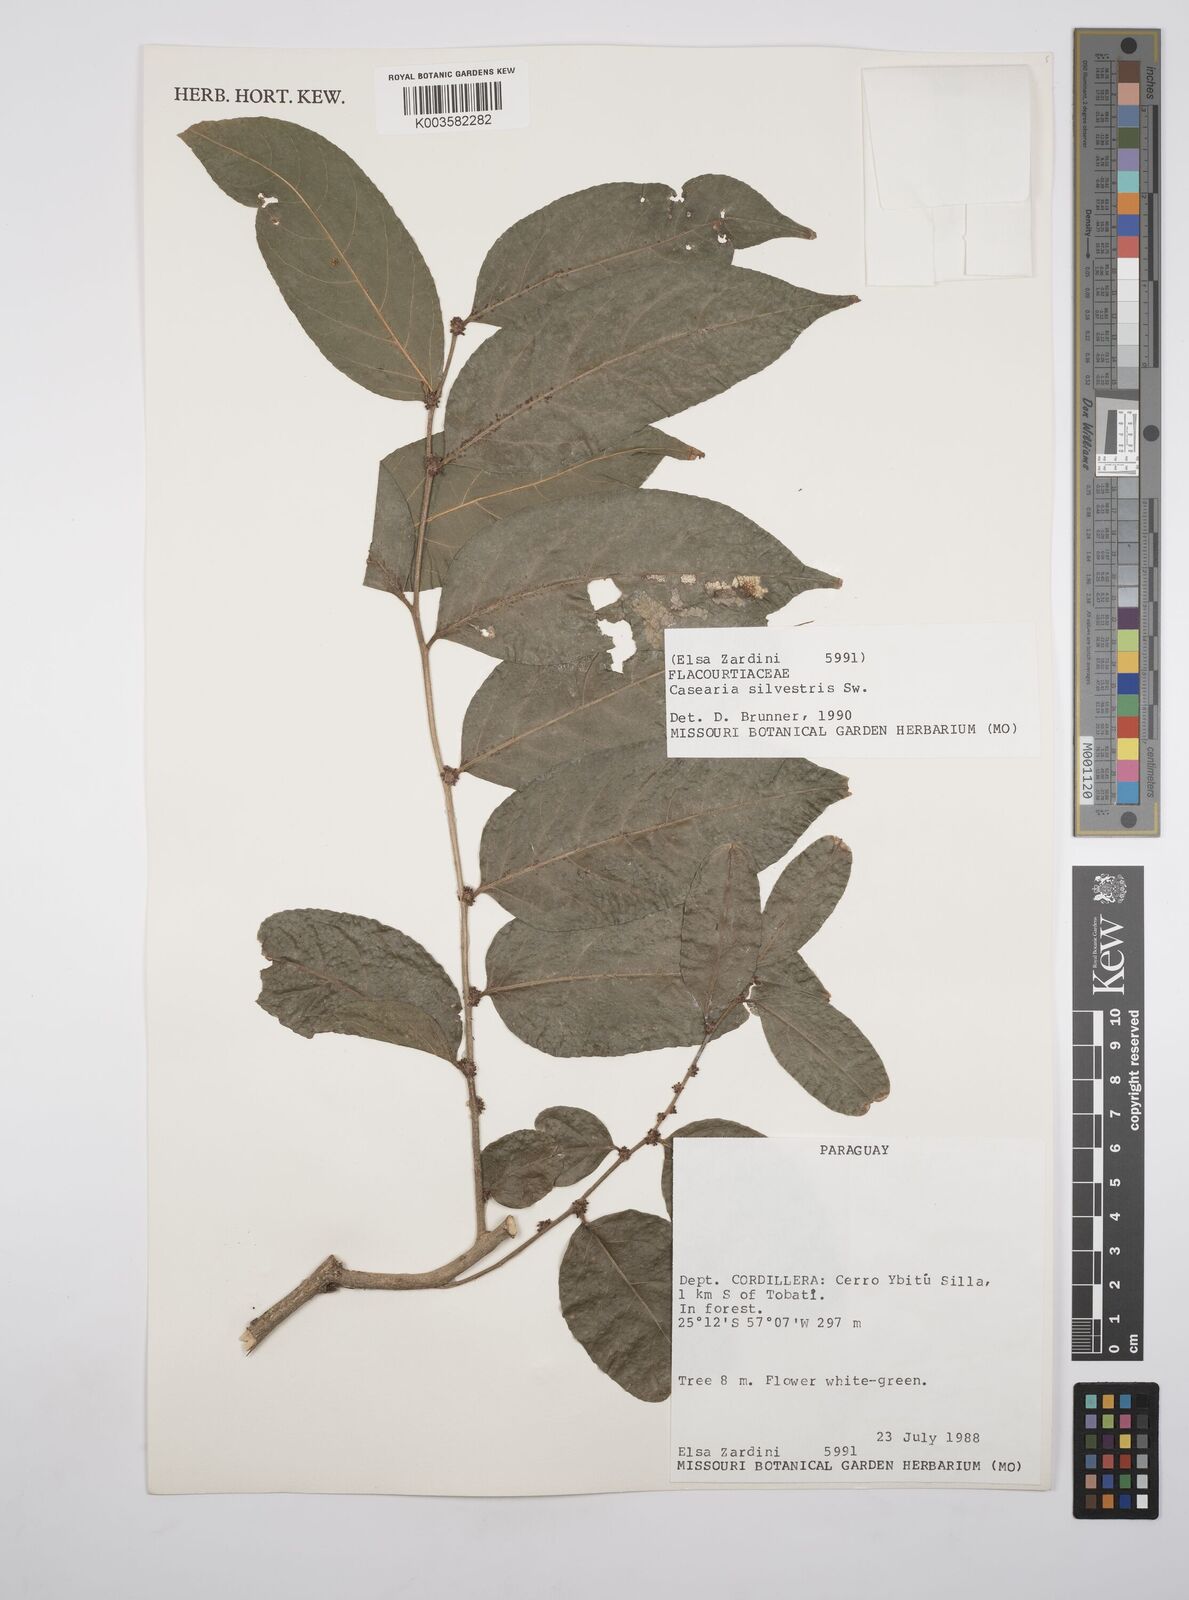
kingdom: Plantae
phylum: Tracheophyta
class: Magnoliopsida
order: Malpighiales
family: Salicaceae
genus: Casearia
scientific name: Casearia sylvestris
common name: Wild sage
